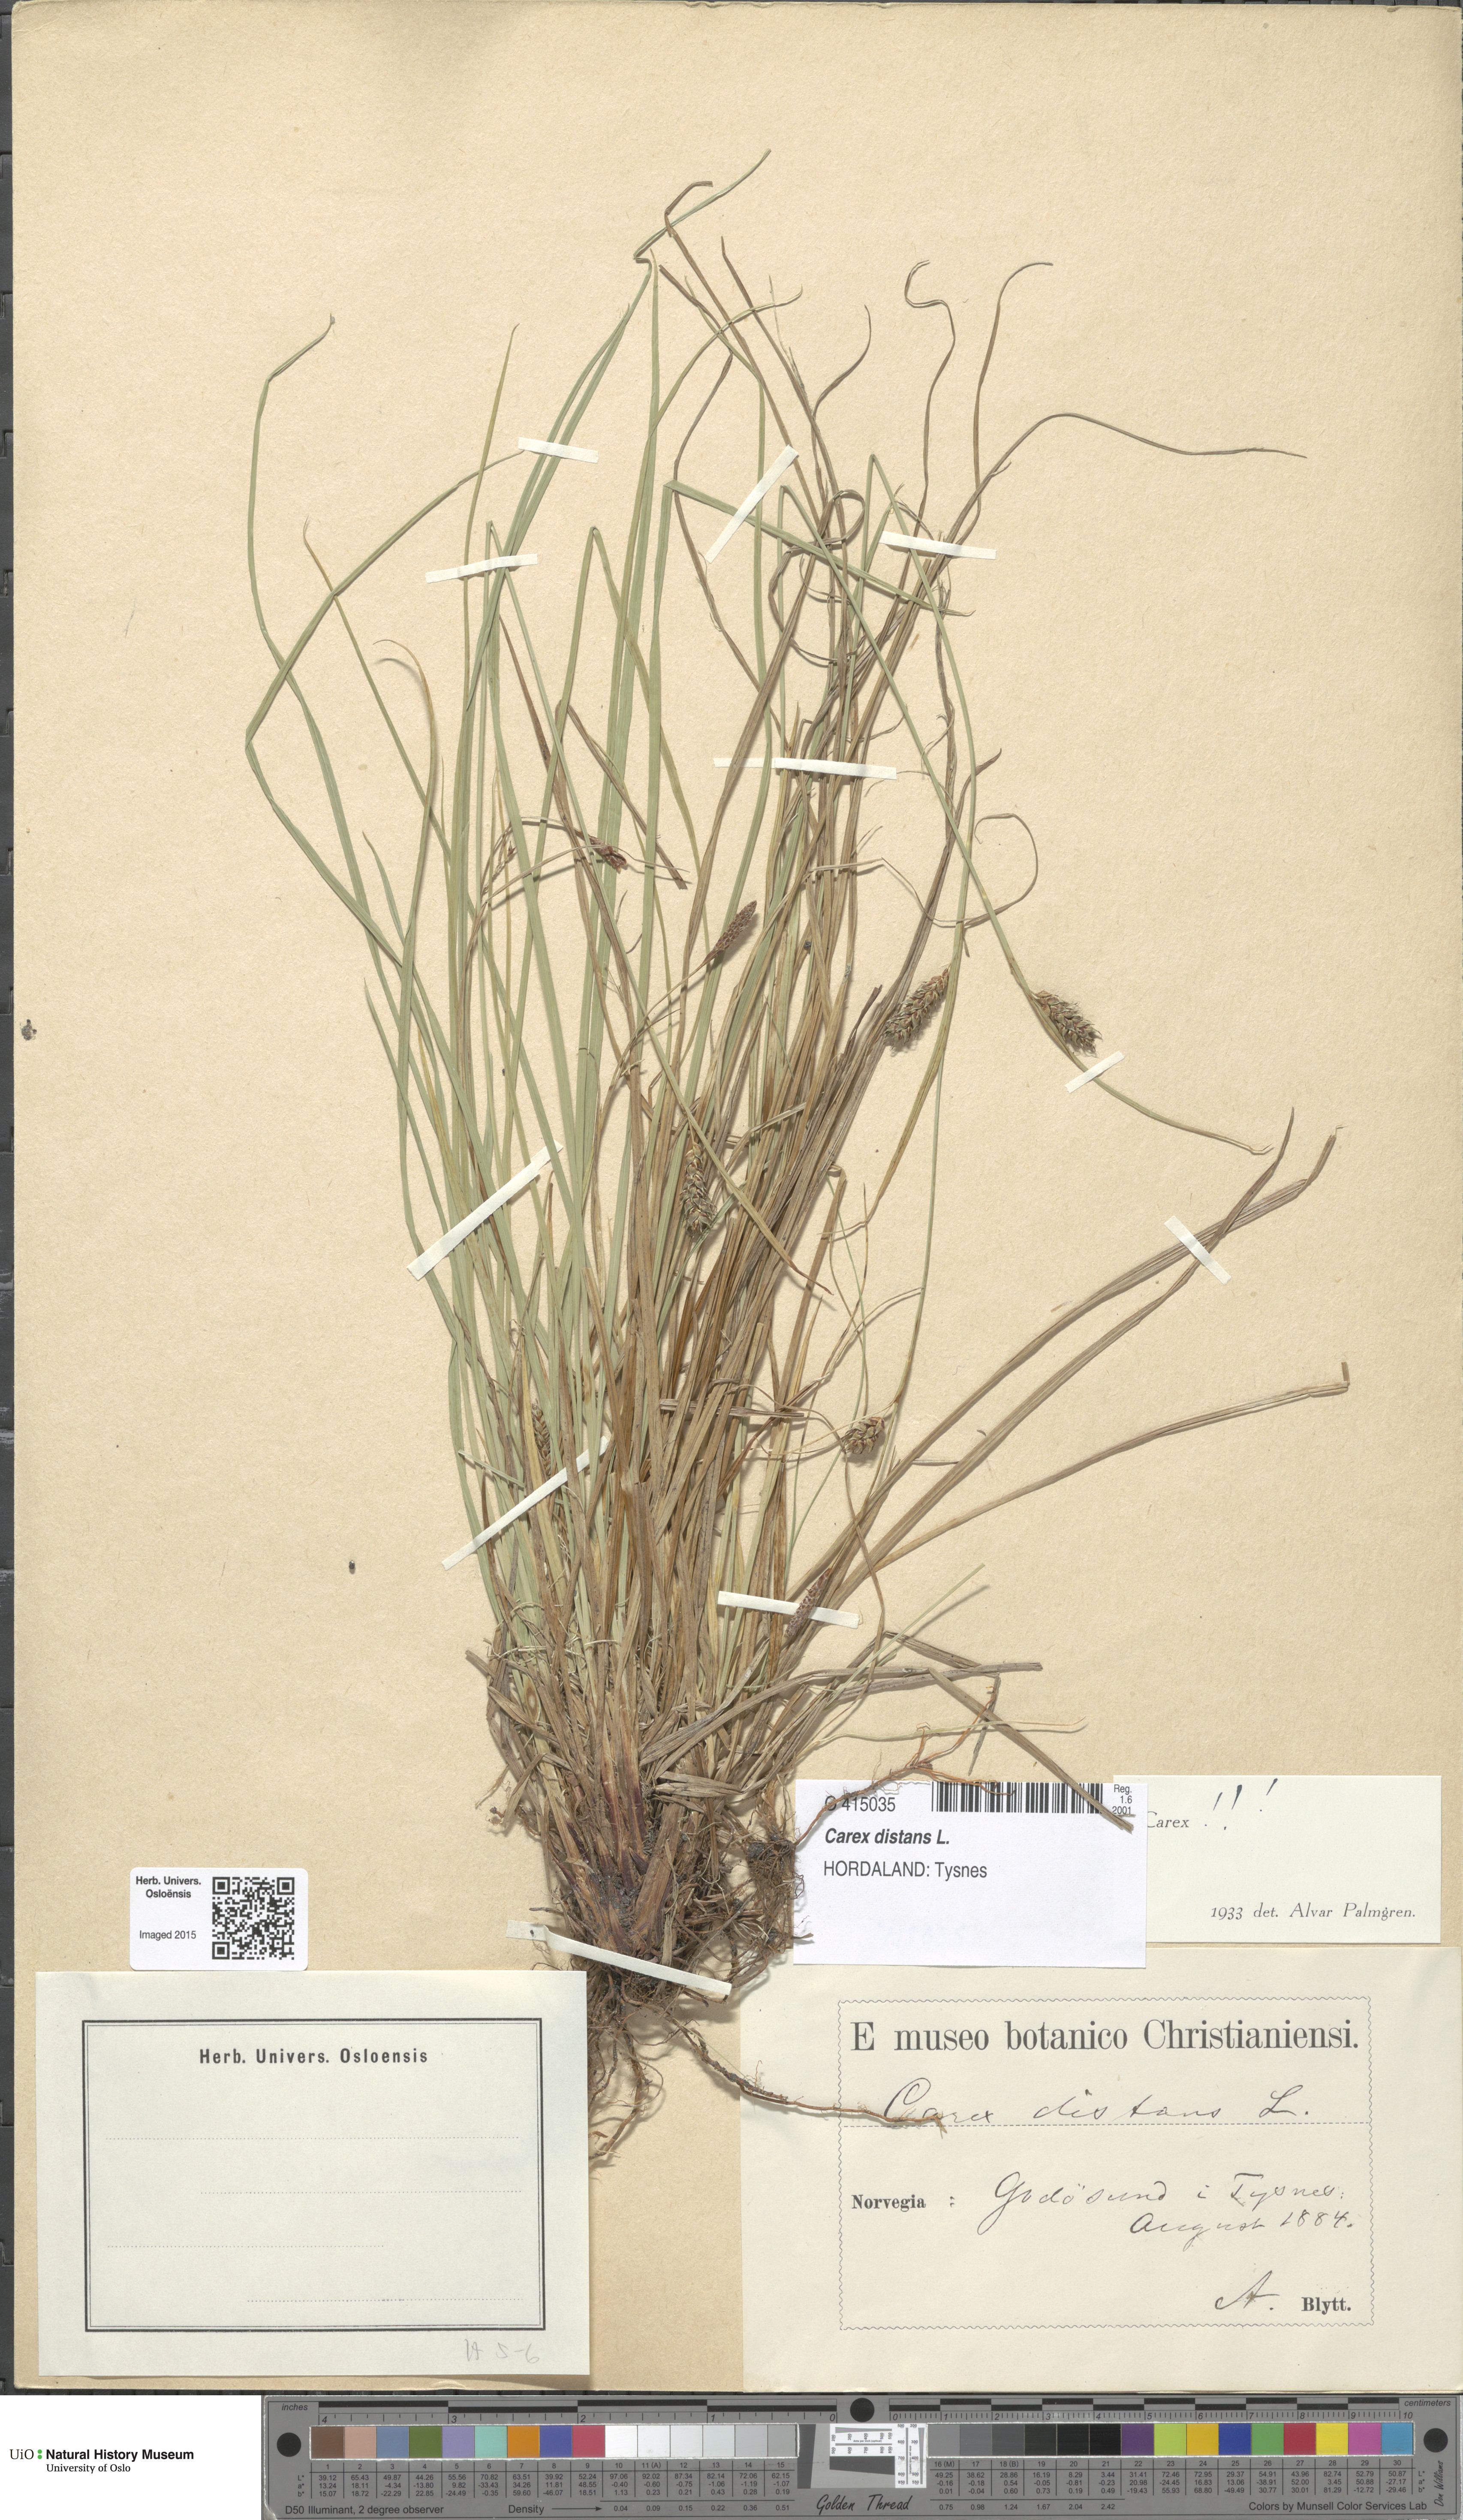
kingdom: Plantae
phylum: Tracheophyta
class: Liliopsida
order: Poales
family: Cyperaceae
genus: Carex
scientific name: Carex distans
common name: Distant sedge
